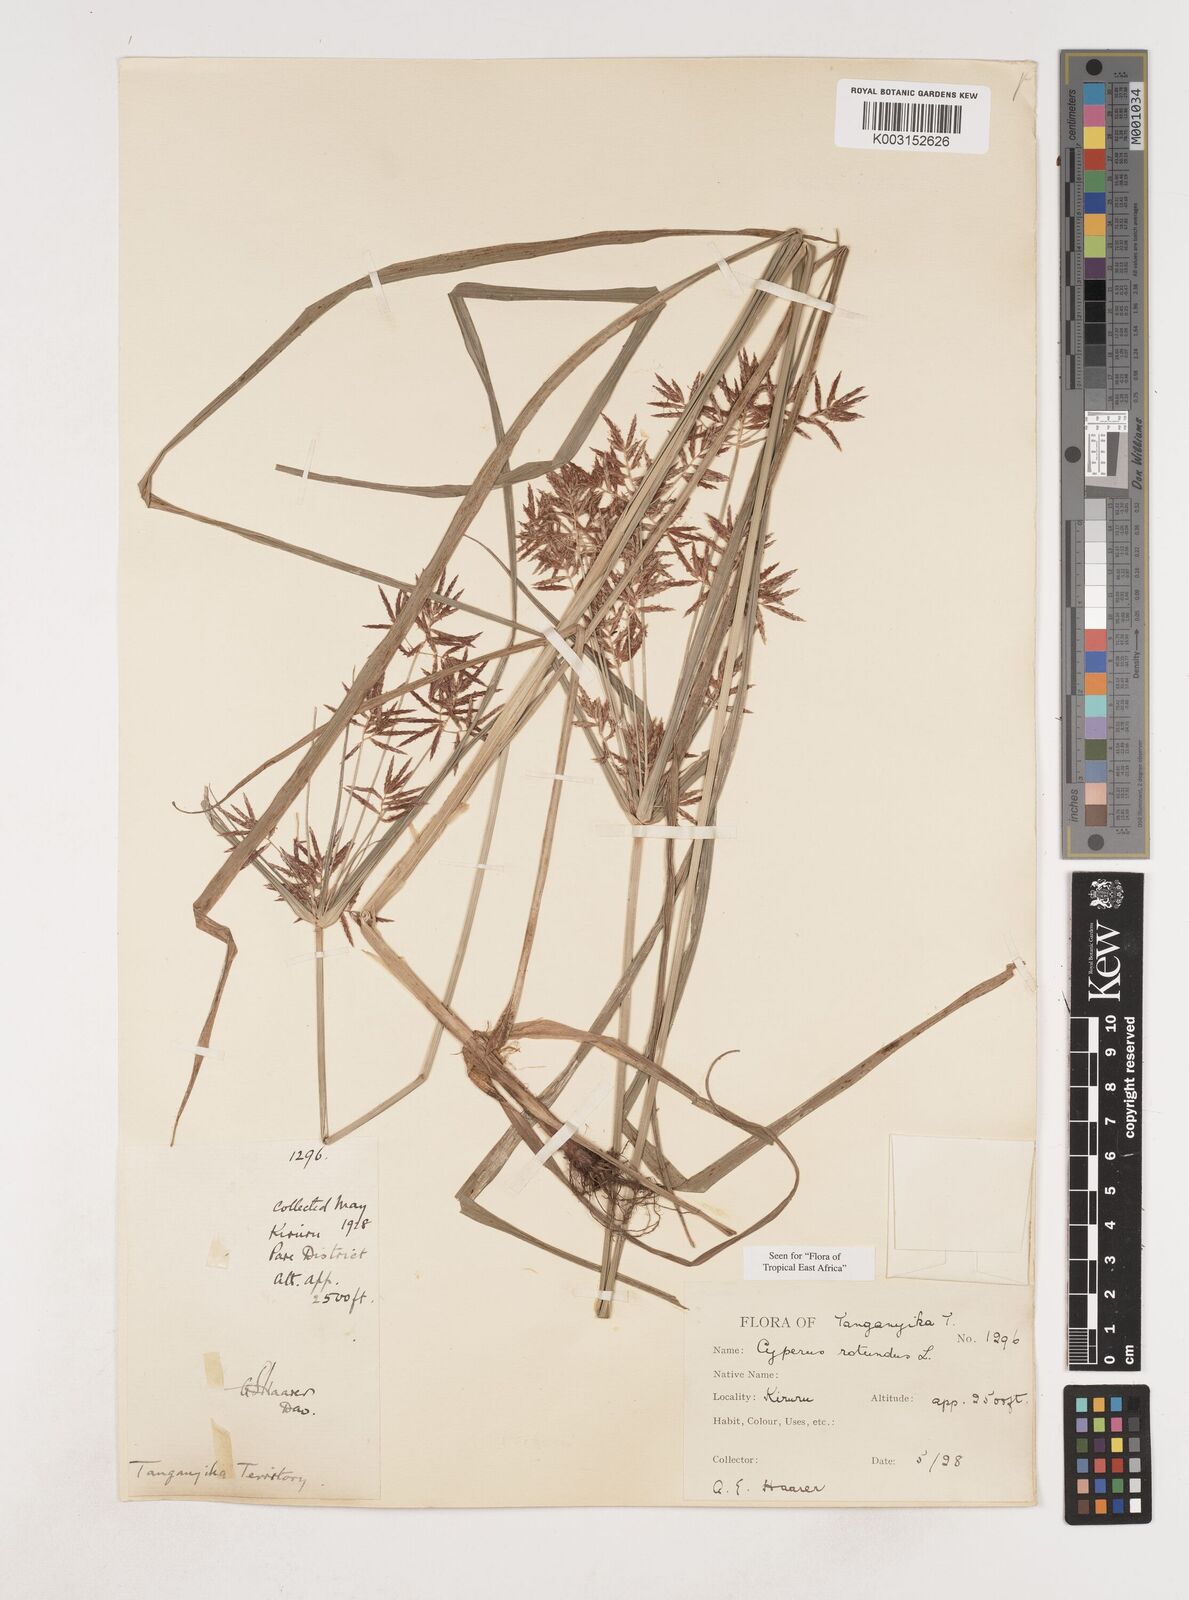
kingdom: Plantae
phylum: Tracheophyta
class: Liliopsida
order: Poales
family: Cyperaceae
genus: Cyperus
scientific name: Cyperus rotundus
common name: Nutgrass
